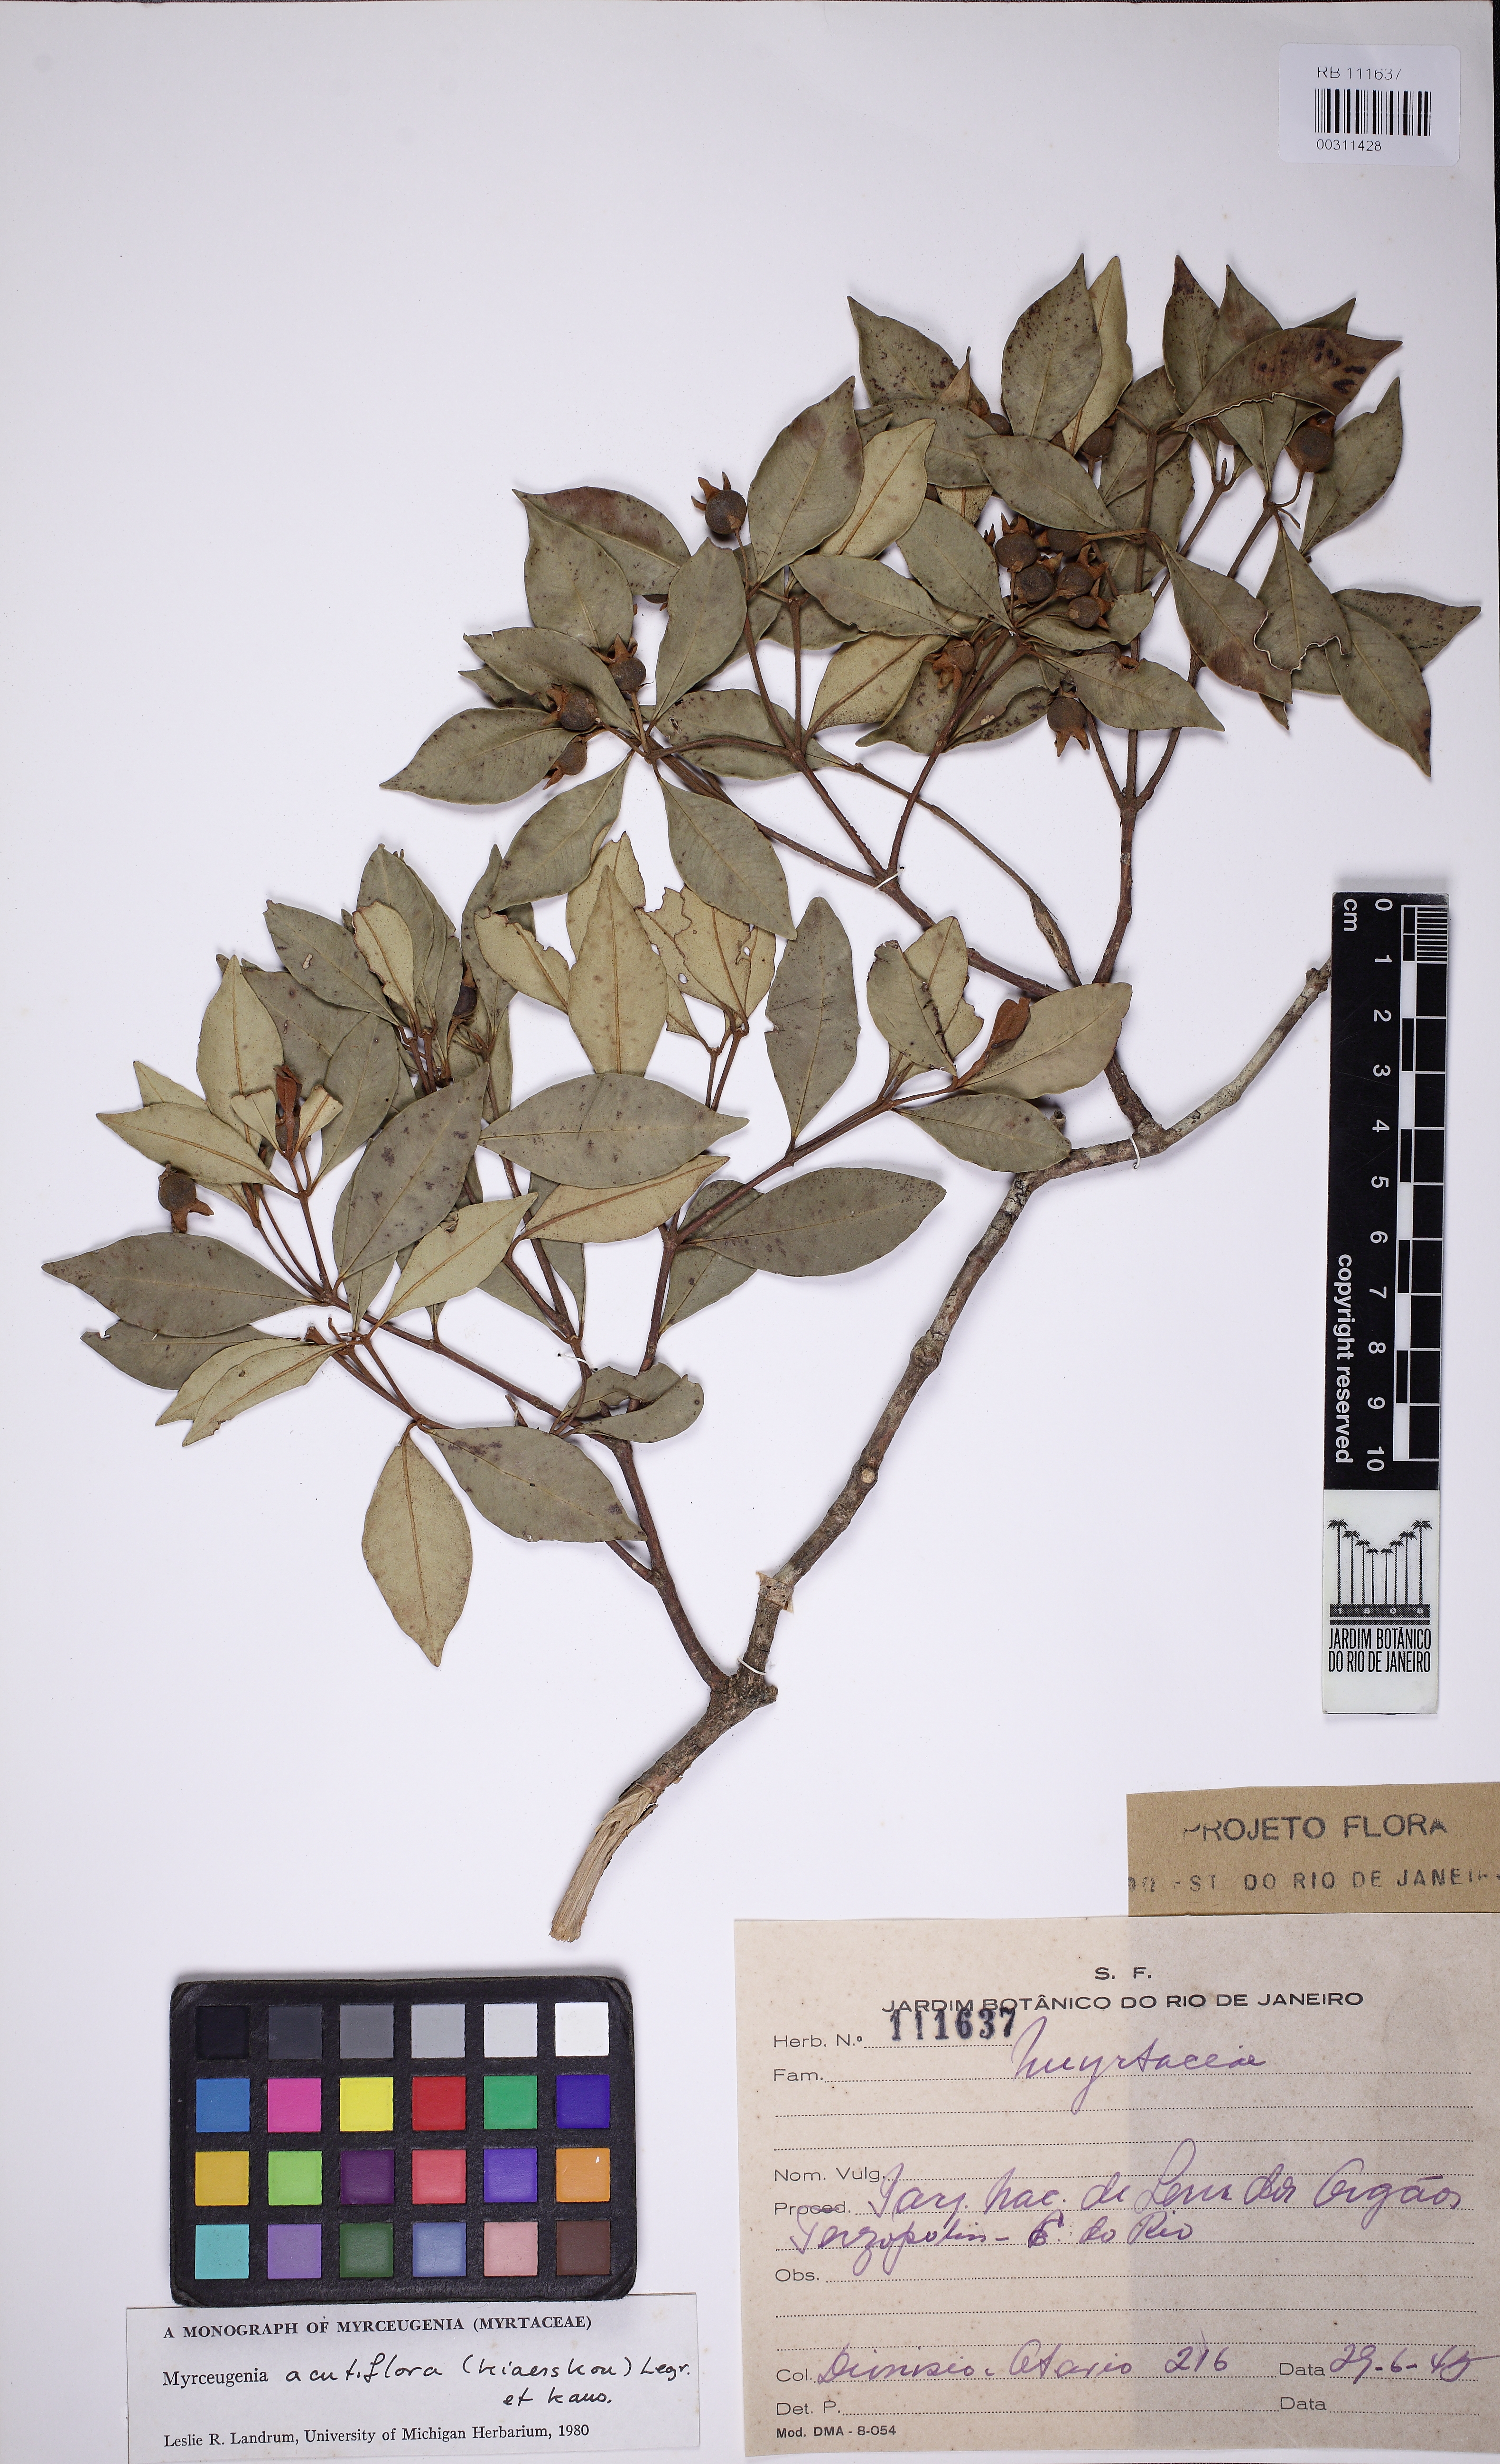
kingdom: Plantae
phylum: Tracheophyta
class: Magnoliopsida
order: Myrtales
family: Myrtaceae
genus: Myrceugenia
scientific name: Myrceugenia acutiflora
